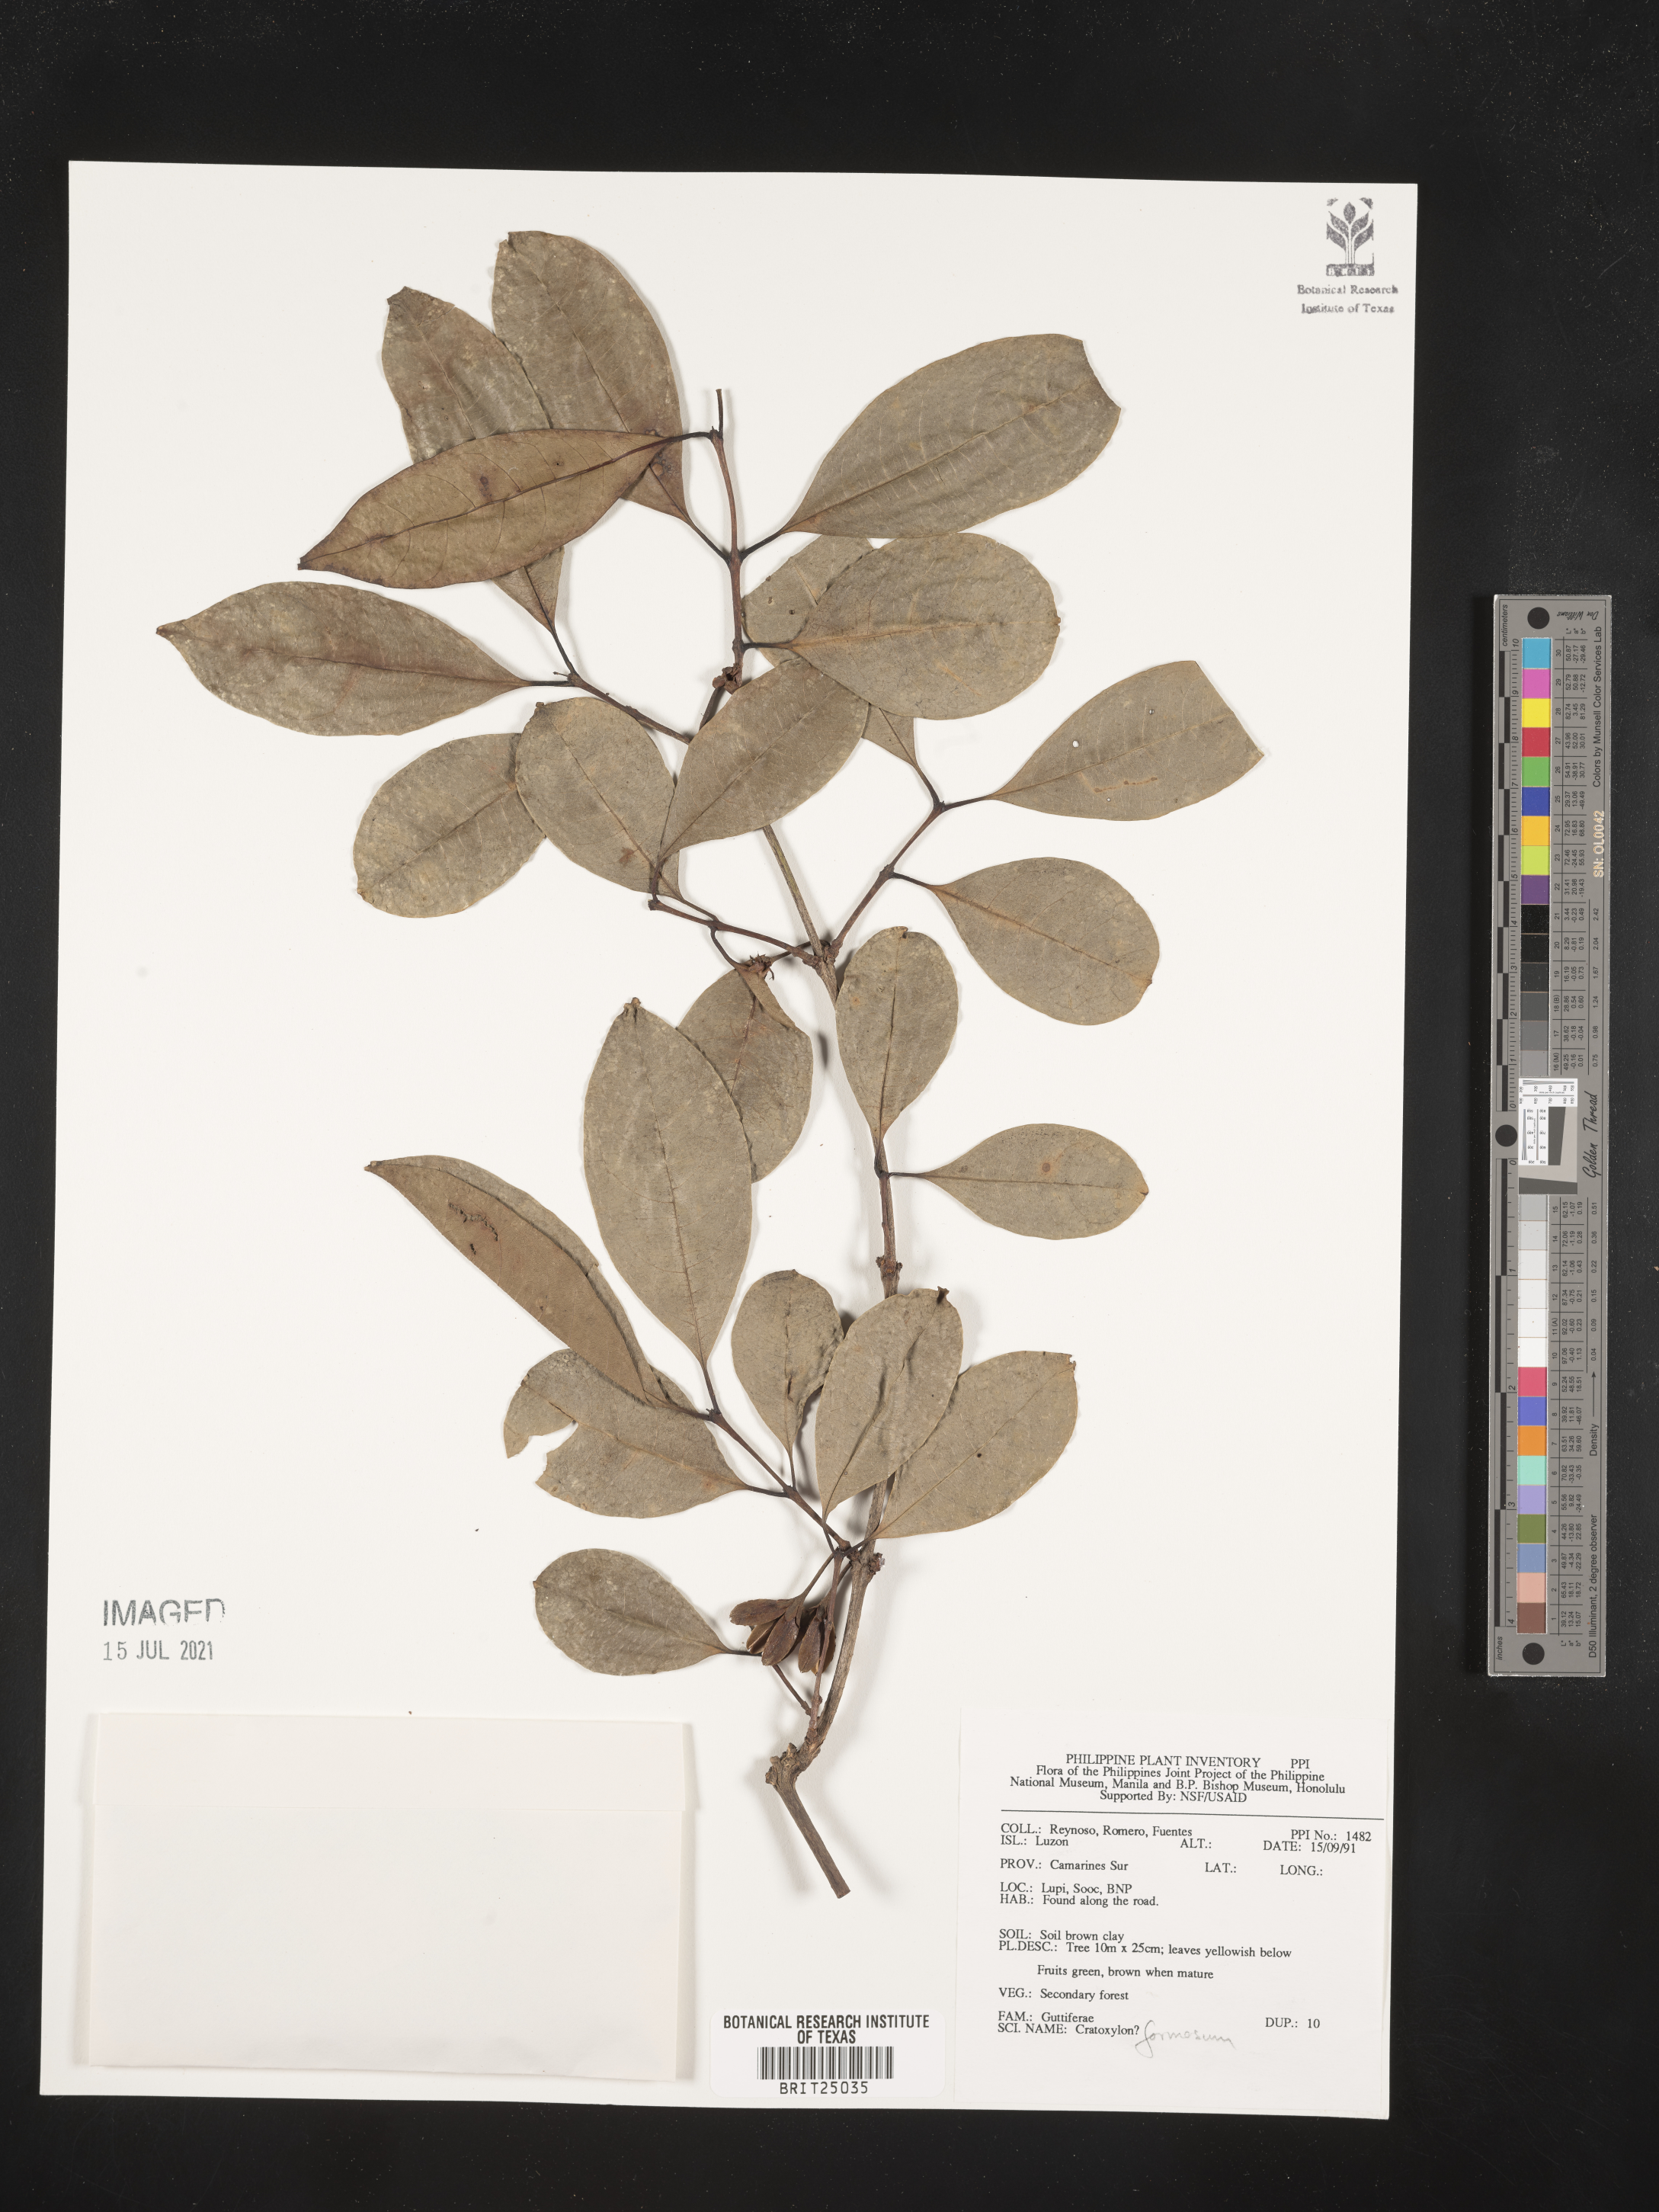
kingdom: Plantae
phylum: Tracheophyta
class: Magnoliopsida
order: Malpighiales
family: Hypericaceae
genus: Cratoxylum
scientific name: Cratoxylum formosum
